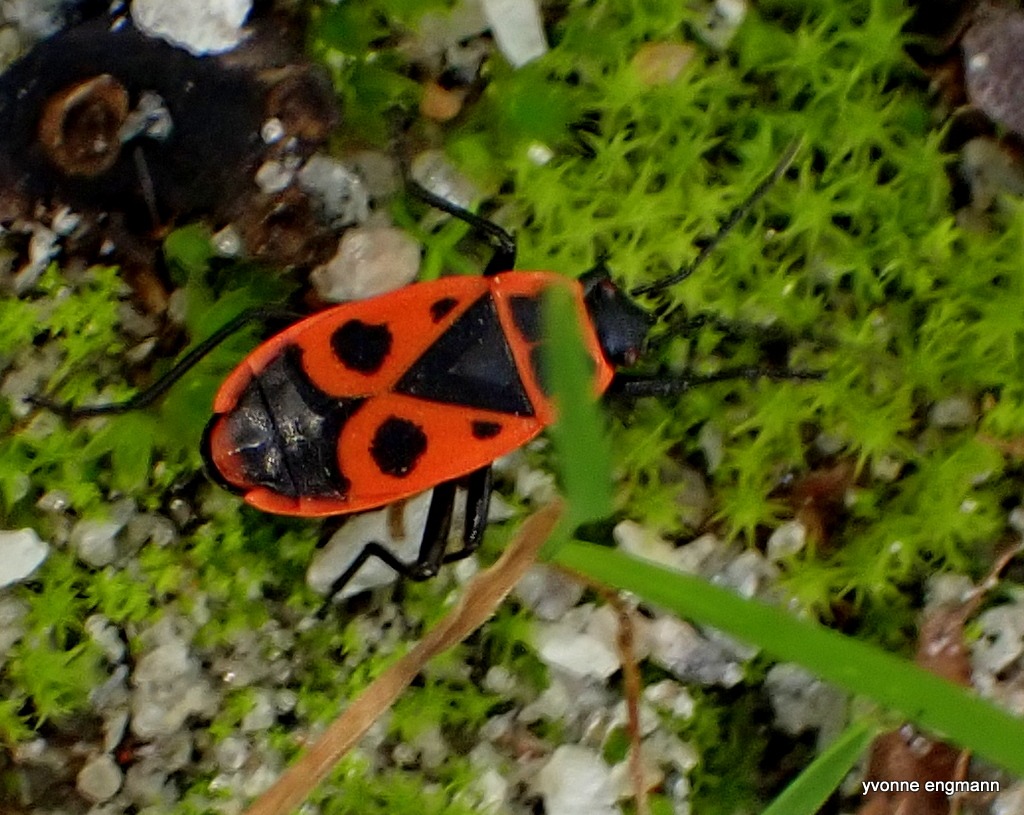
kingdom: Animalia
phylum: Arthropoda
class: Insecta
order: Hemiptera
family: Pyrrhocoridae
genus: Pyrrhocoris
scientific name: Pyrrhocoris apterus
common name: Ildtæge
